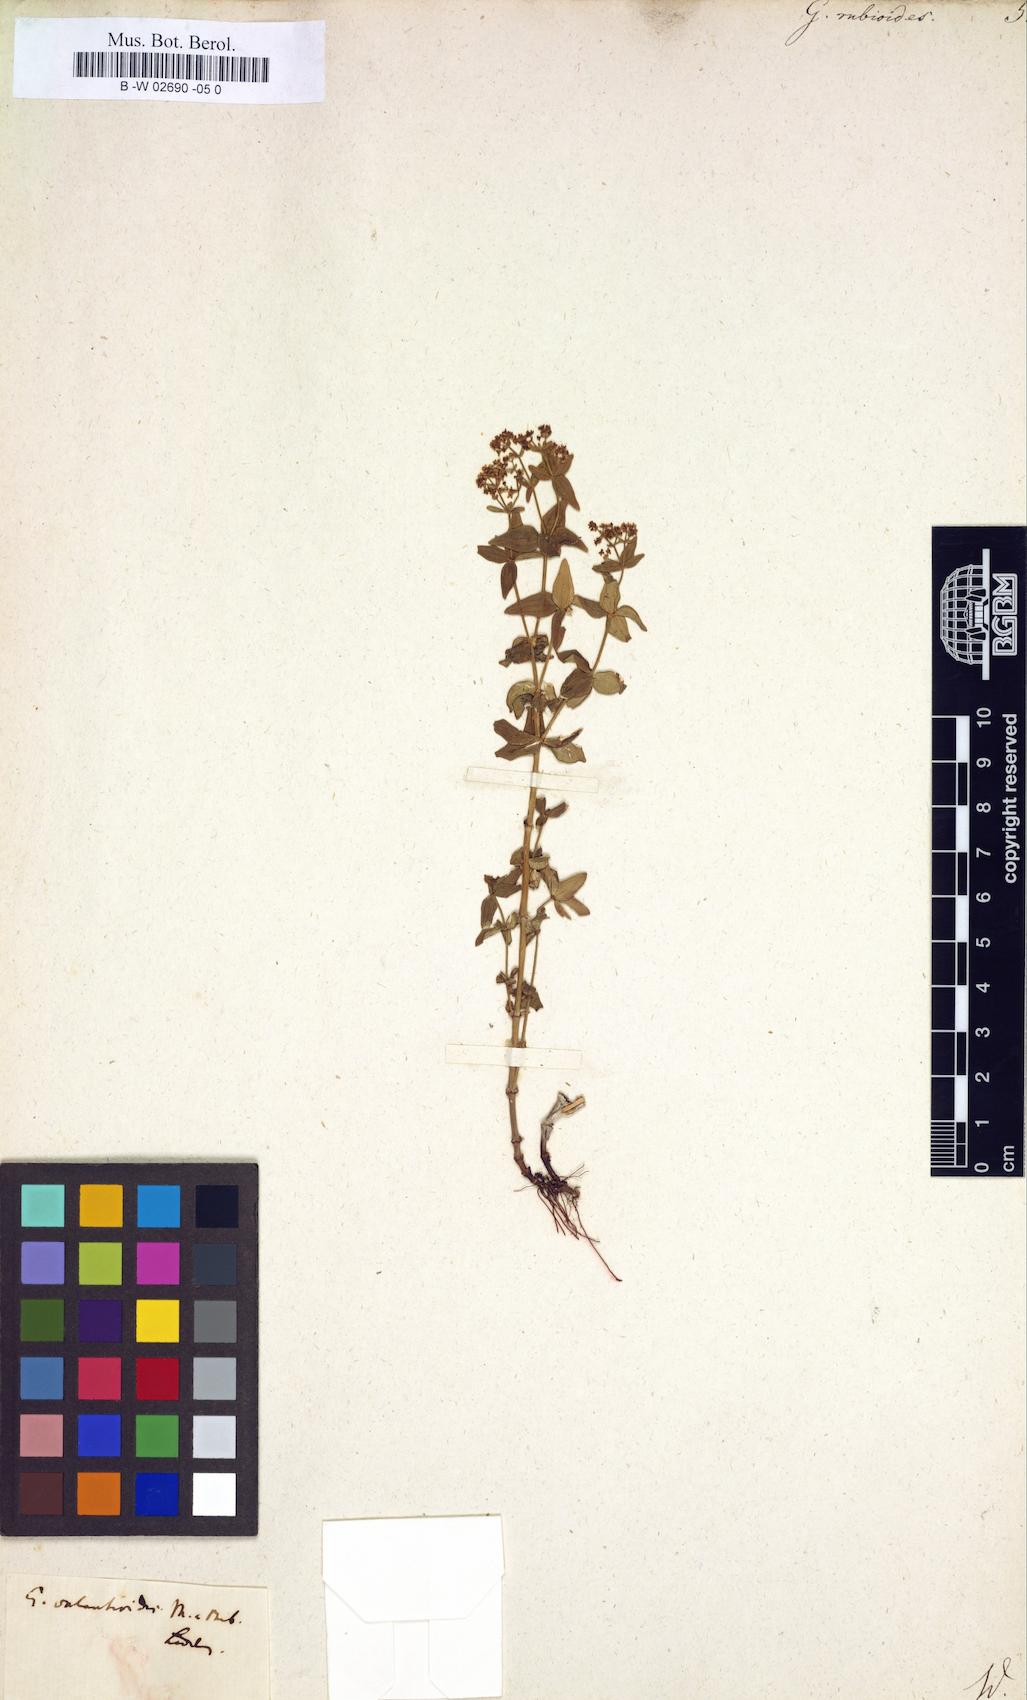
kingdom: Plantae
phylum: Tracheophyta
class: Magnoliopsida
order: Gentianales
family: Rubiaceae
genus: Galium
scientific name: Galium valantioides
